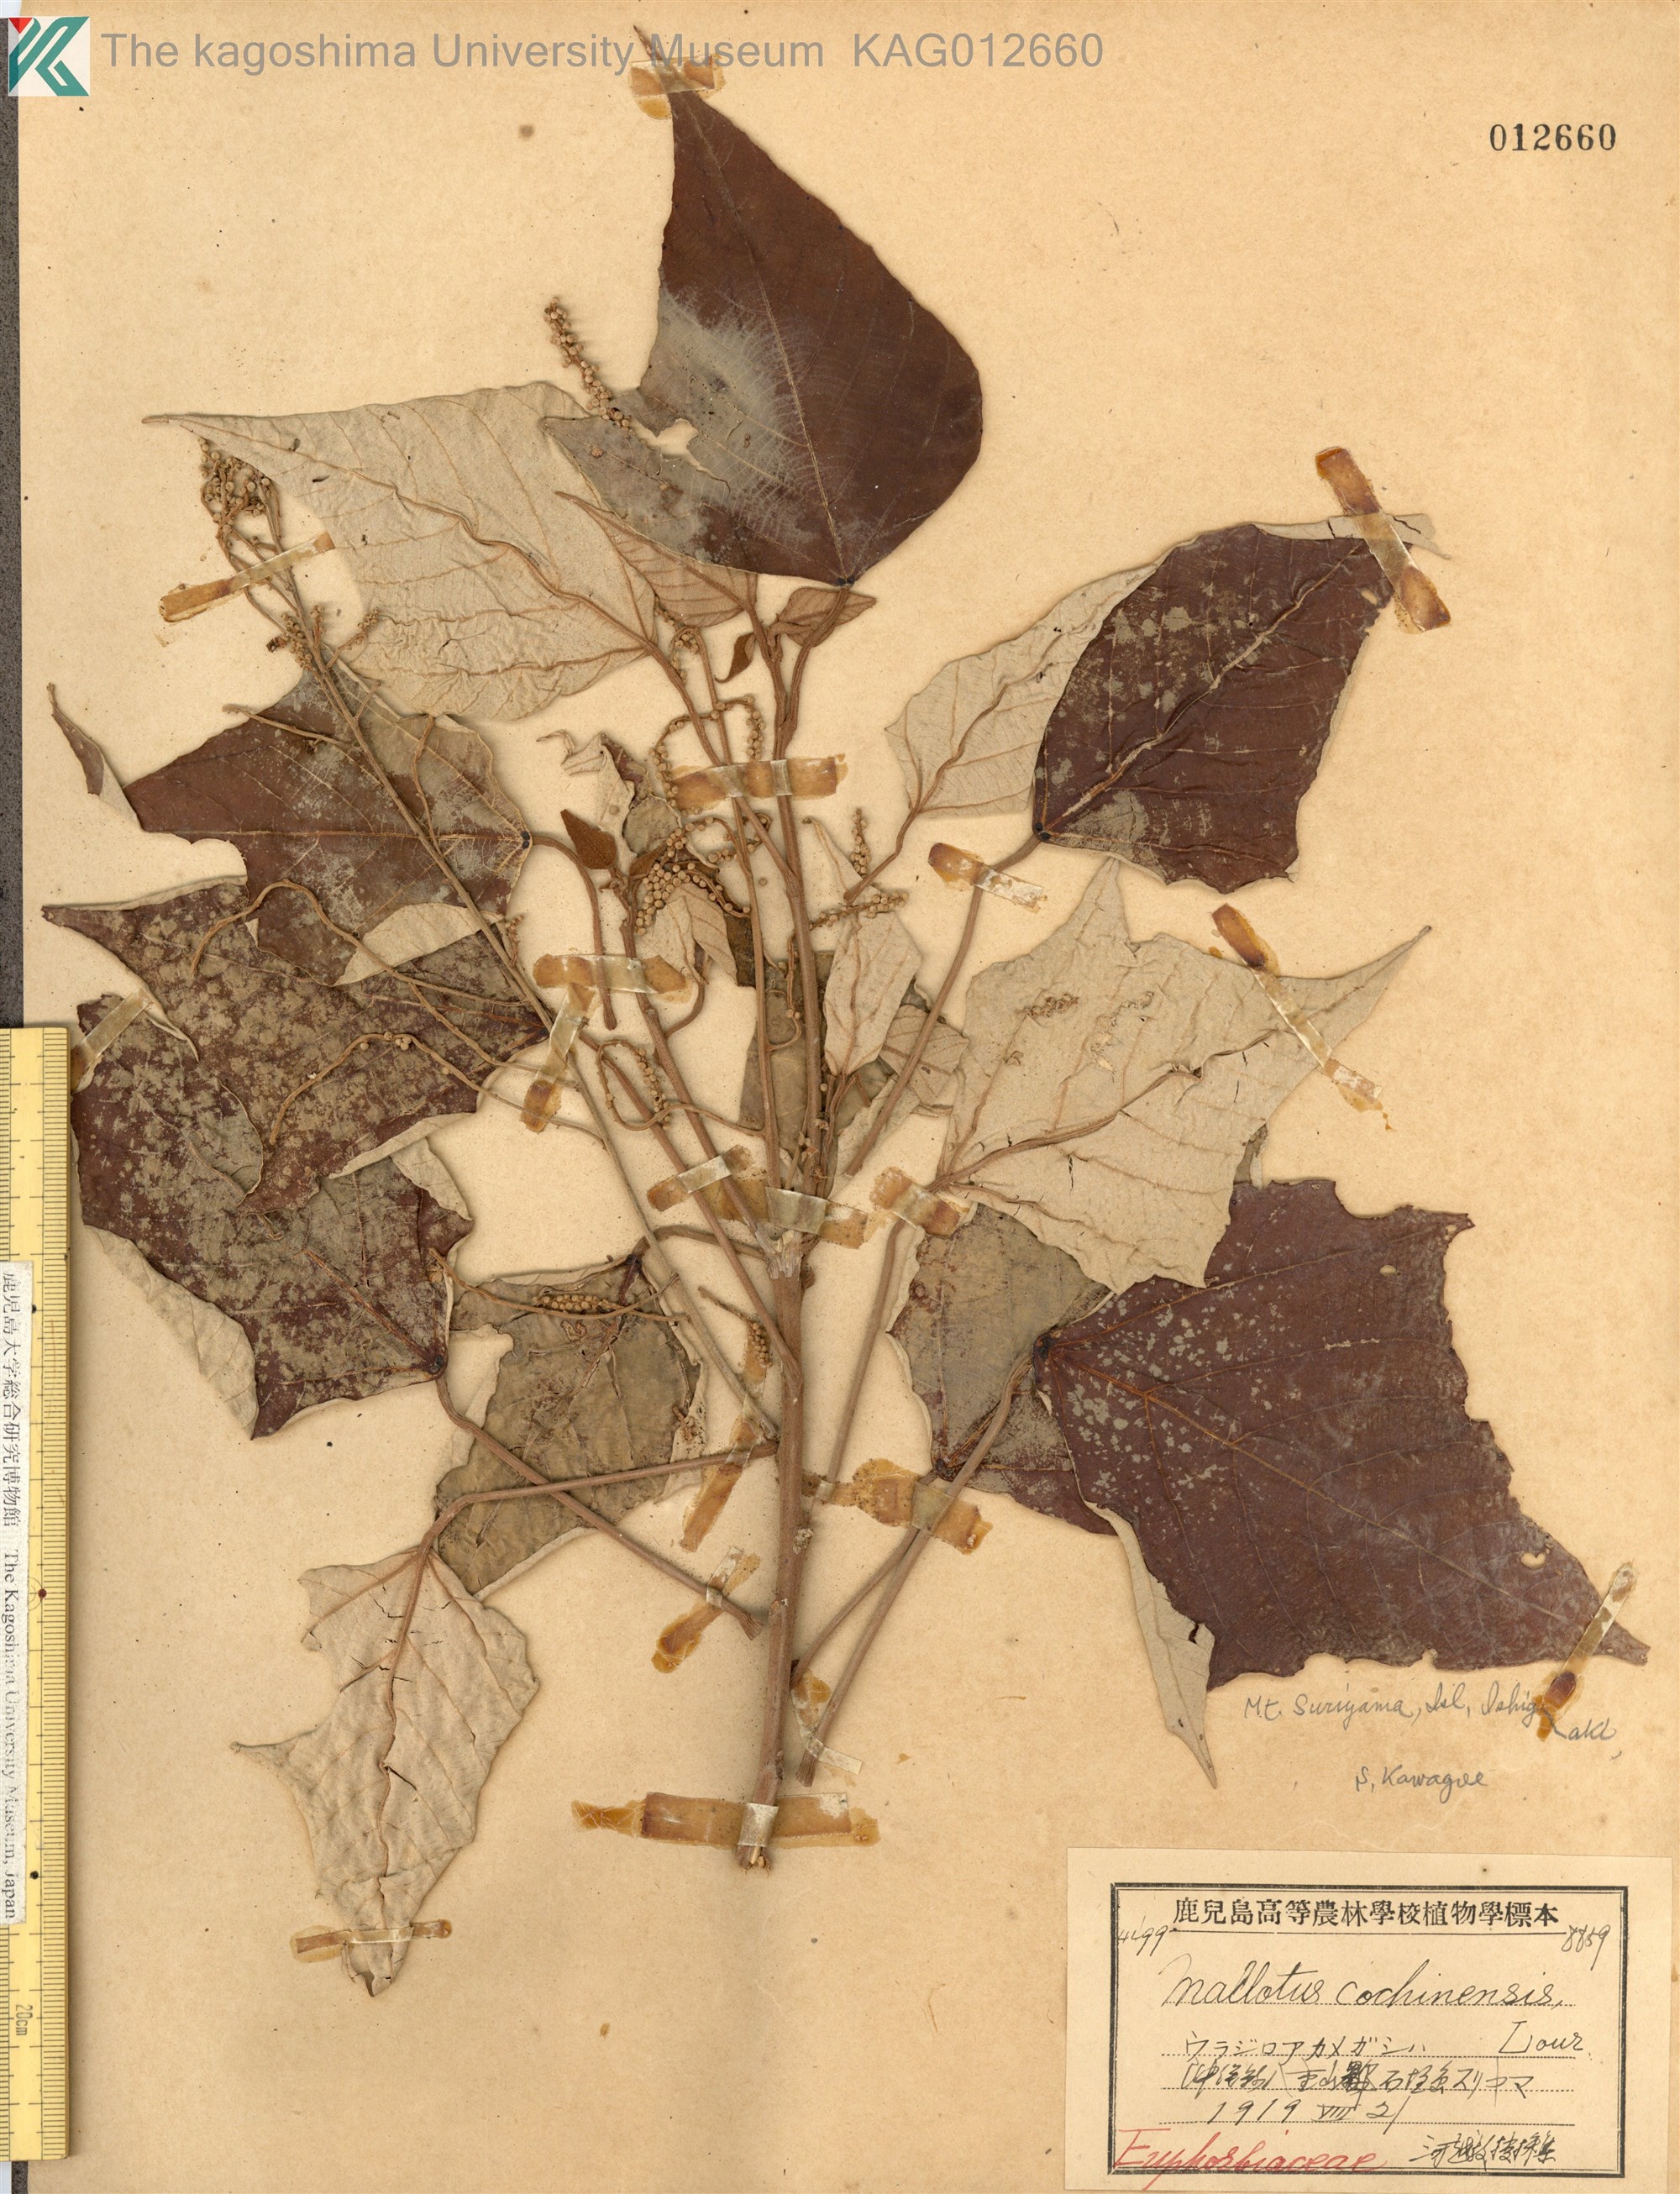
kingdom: Plantae
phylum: Tracheophyta
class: Magnoliopsida
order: Malpighiales
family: Euphorbiaceae
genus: Mallotus
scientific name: Mallotus paniculatus
